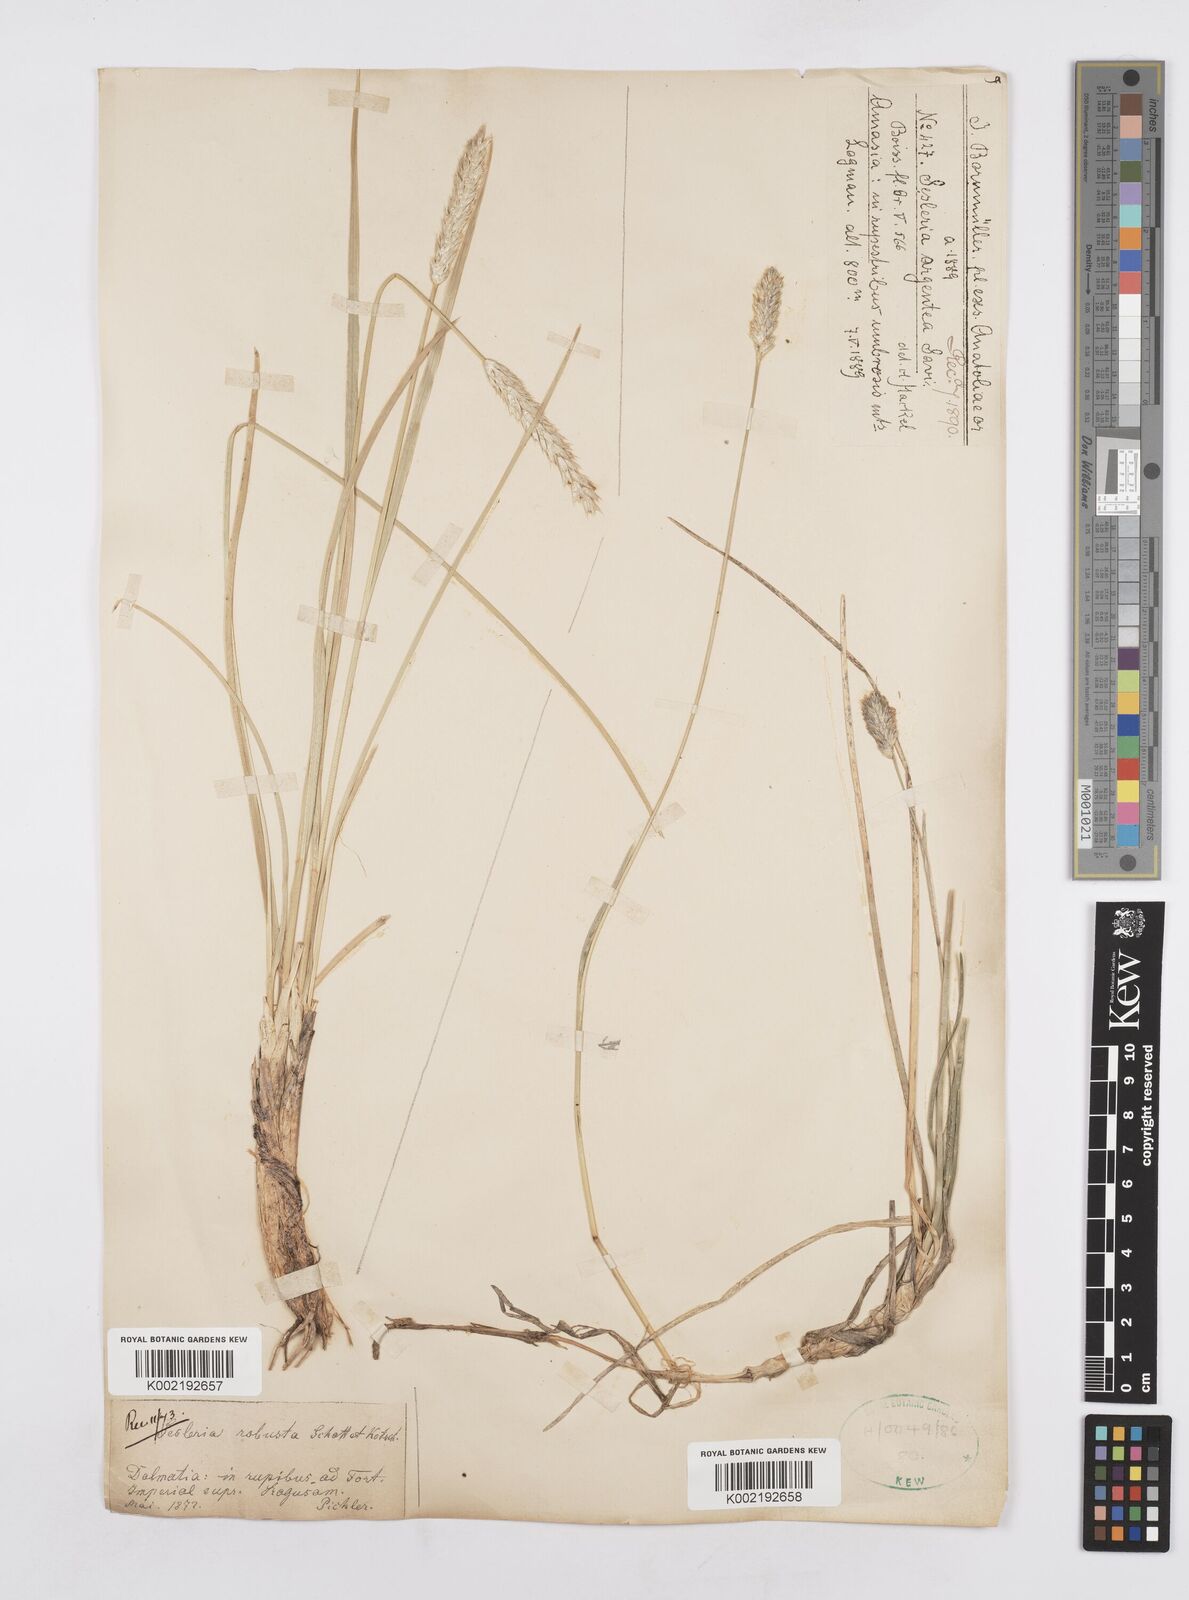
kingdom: Plantae
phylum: Tracheophyta
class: Liliopsida
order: Poales
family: Poaceae
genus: Sesleria
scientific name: Sesleria robusta
